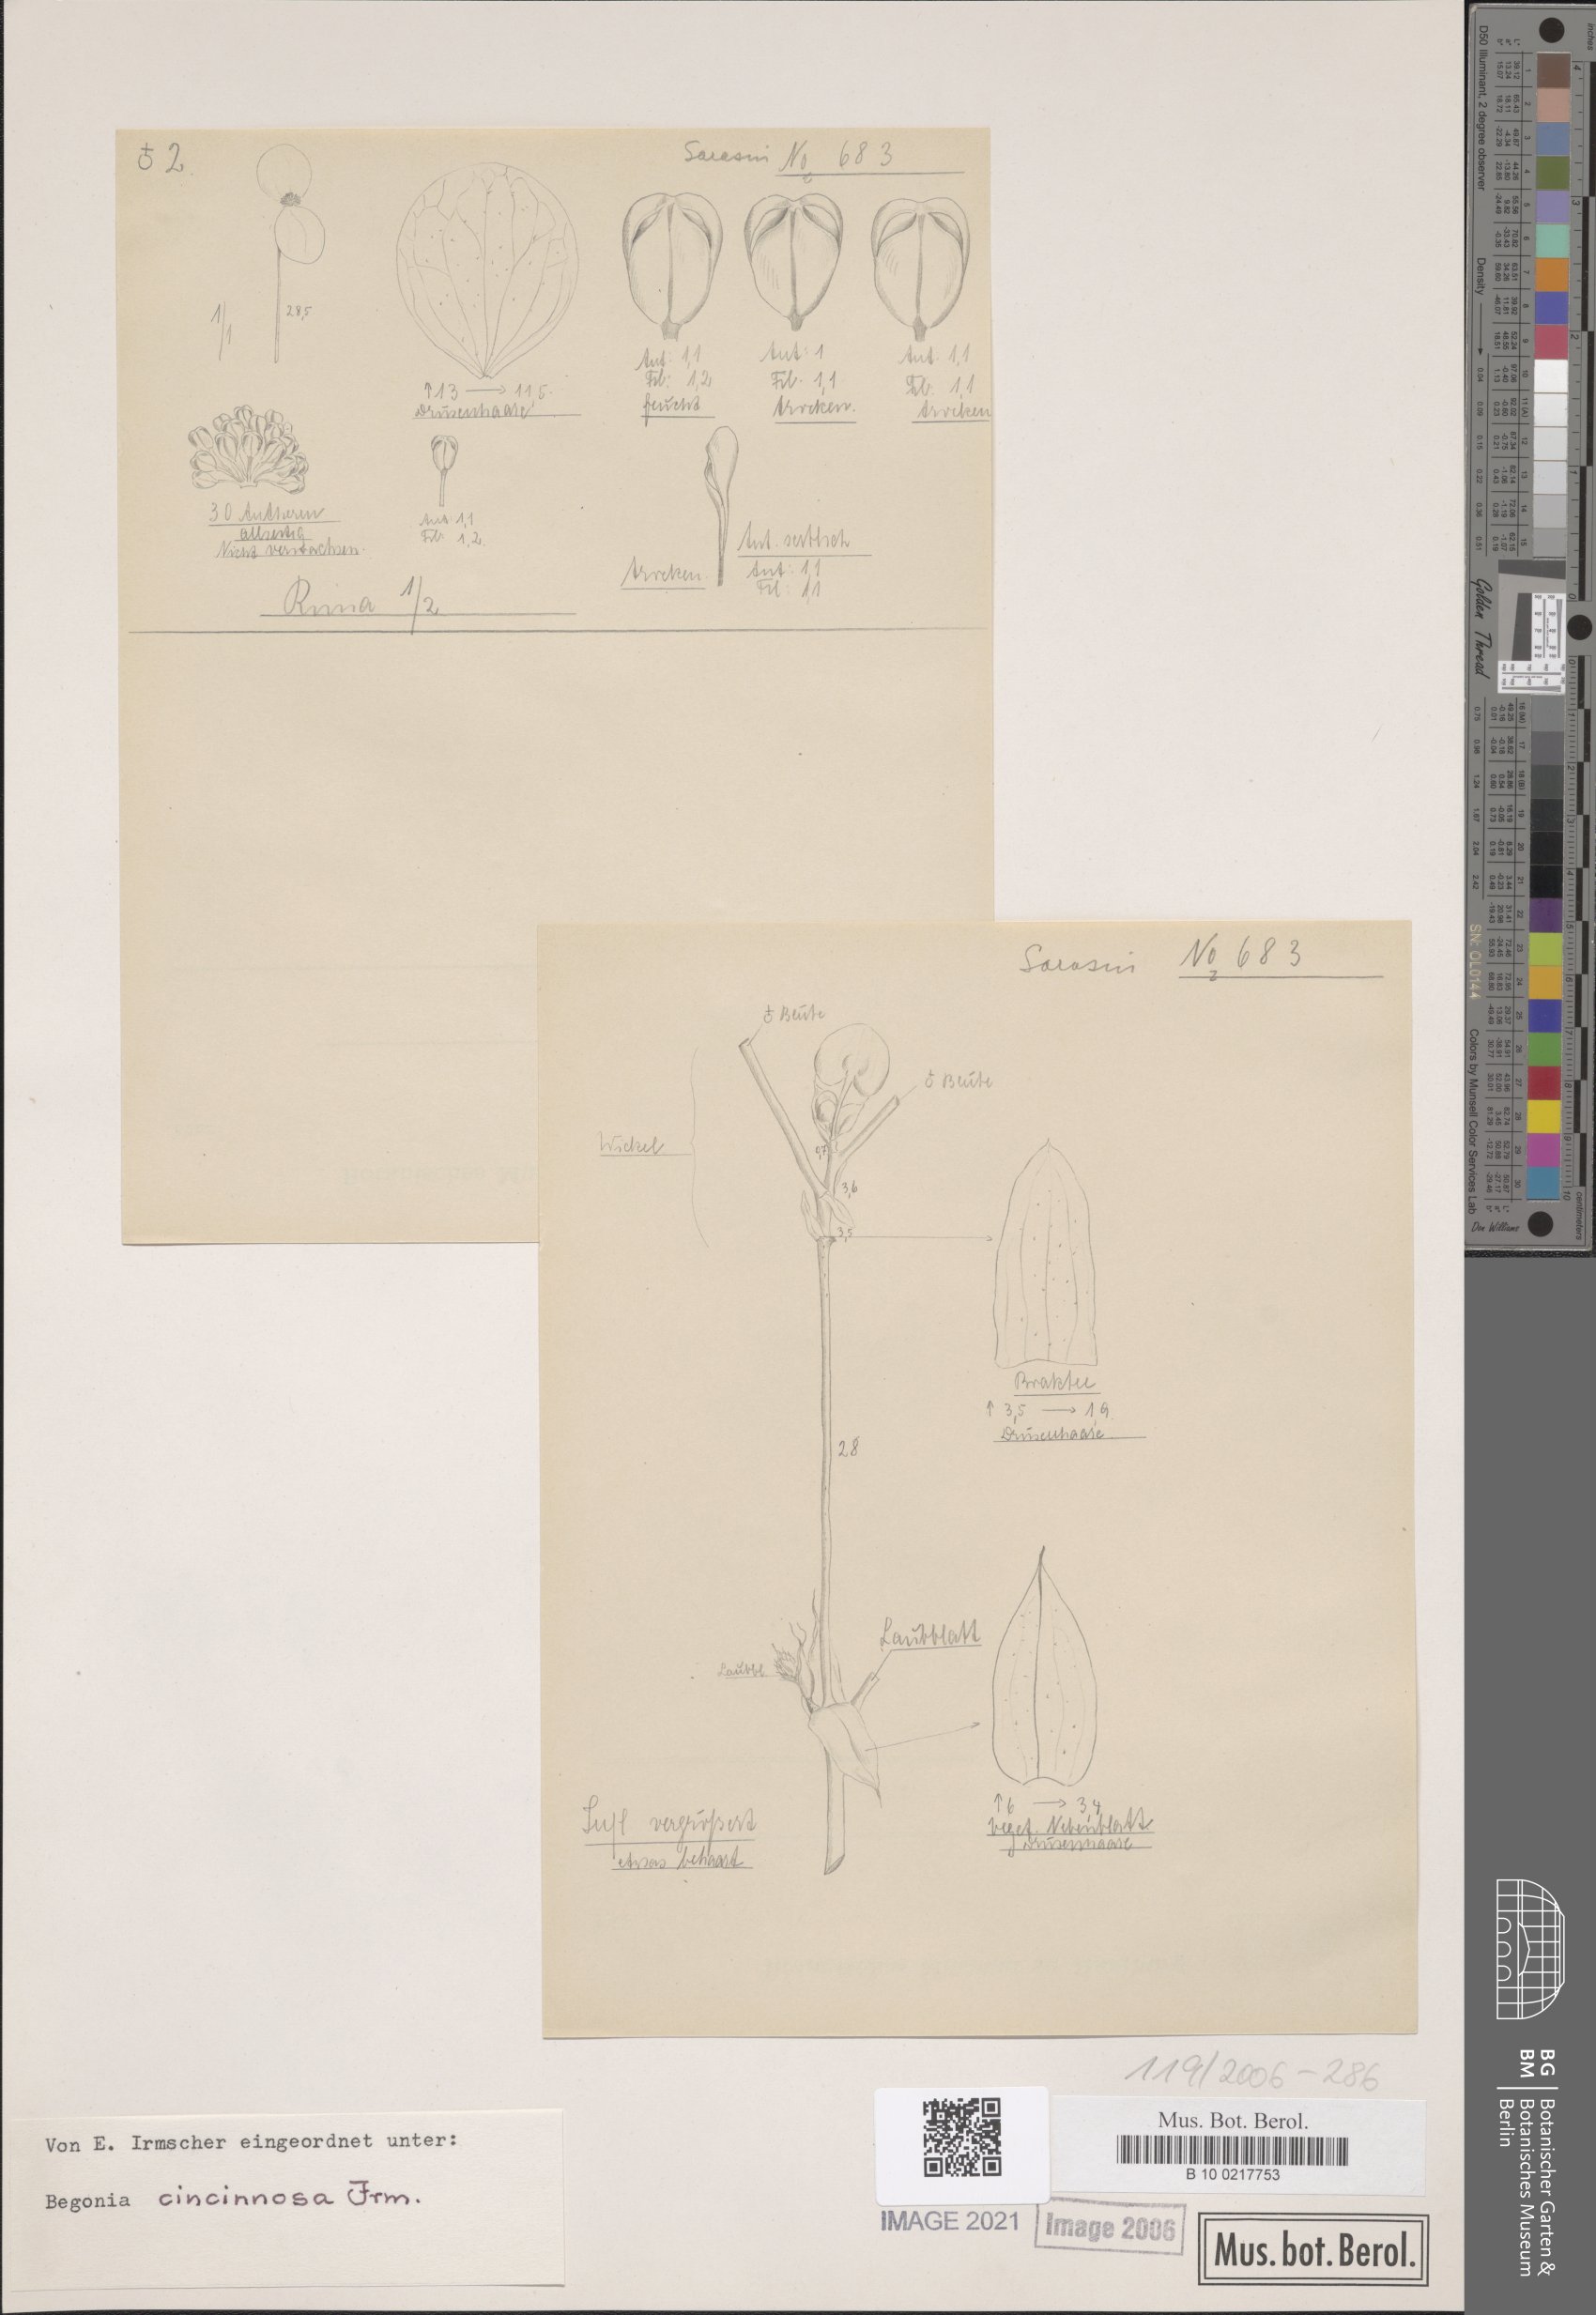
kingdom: Plantae
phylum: Tracheophyta
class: Magnoliopsida
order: Cucurbitales
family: Begoniaceae
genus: Begonia
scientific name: Begonia
